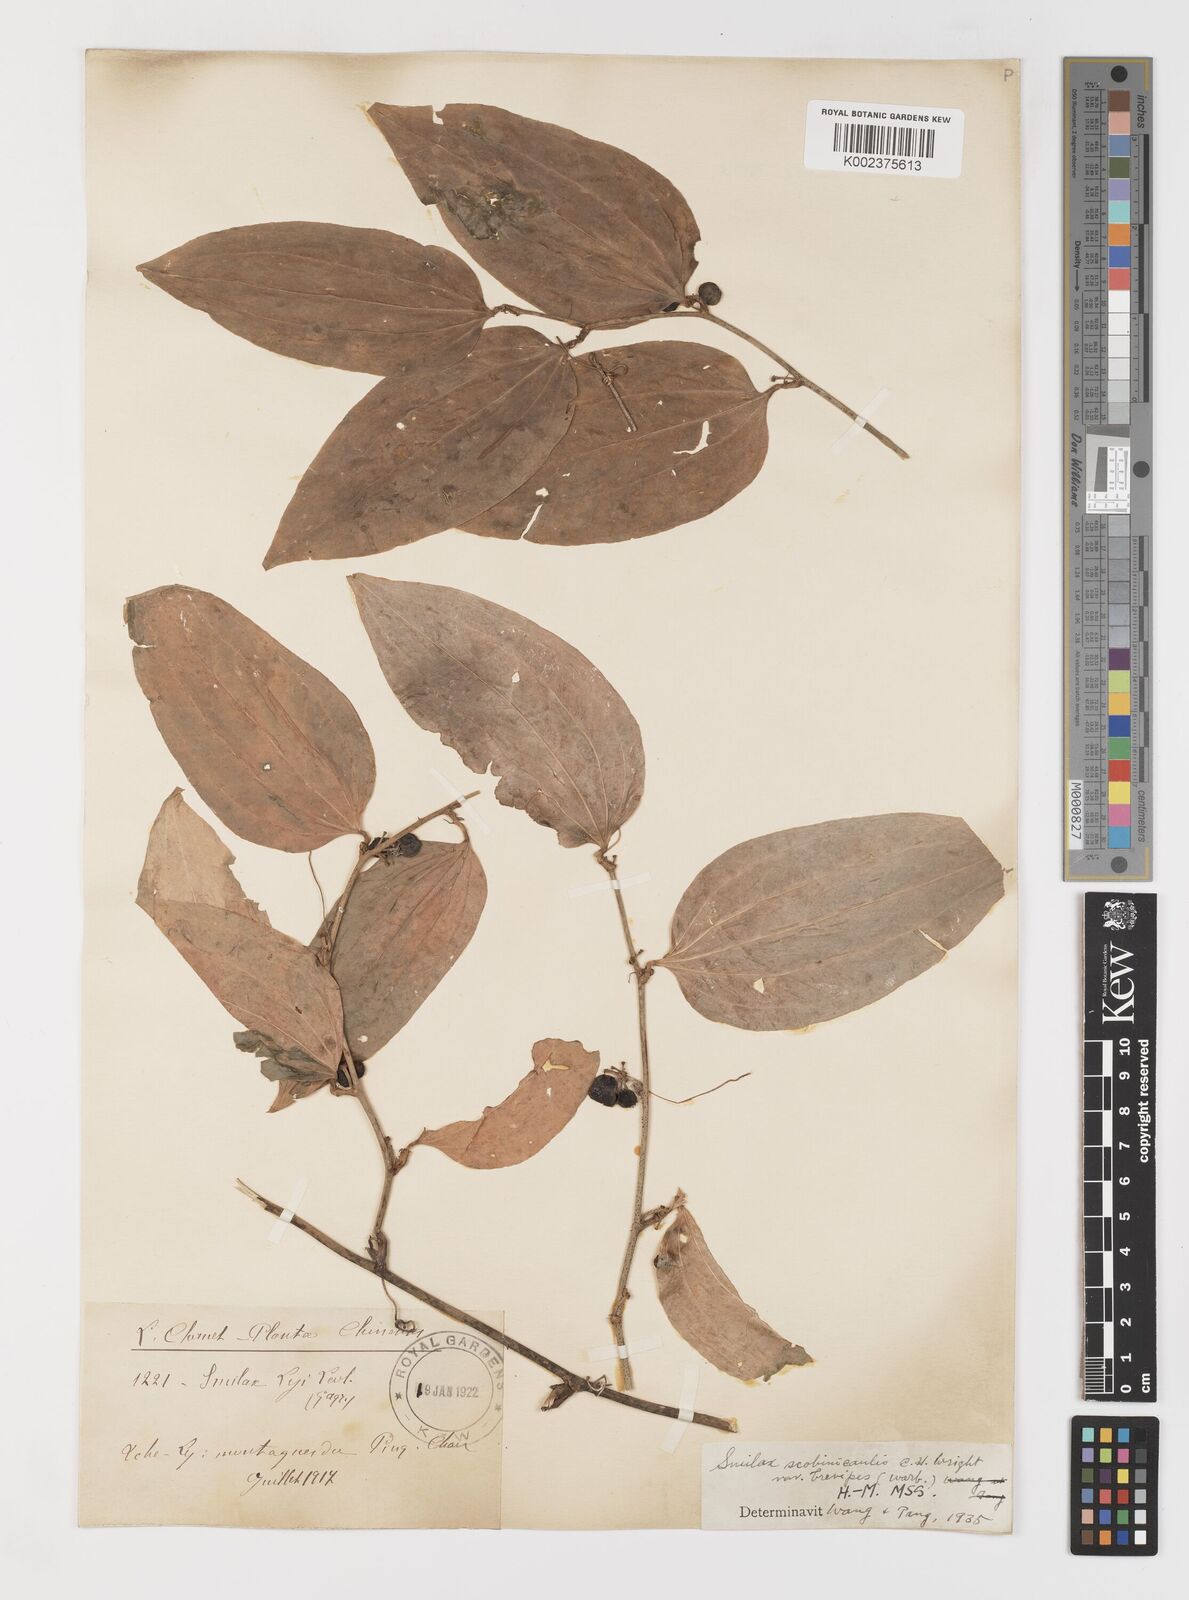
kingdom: Plantae
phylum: Tracheophyta
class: Liliopsida
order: Liliales
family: Smilacaceae
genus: Smilax
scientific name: Smilax scobinicaulis
